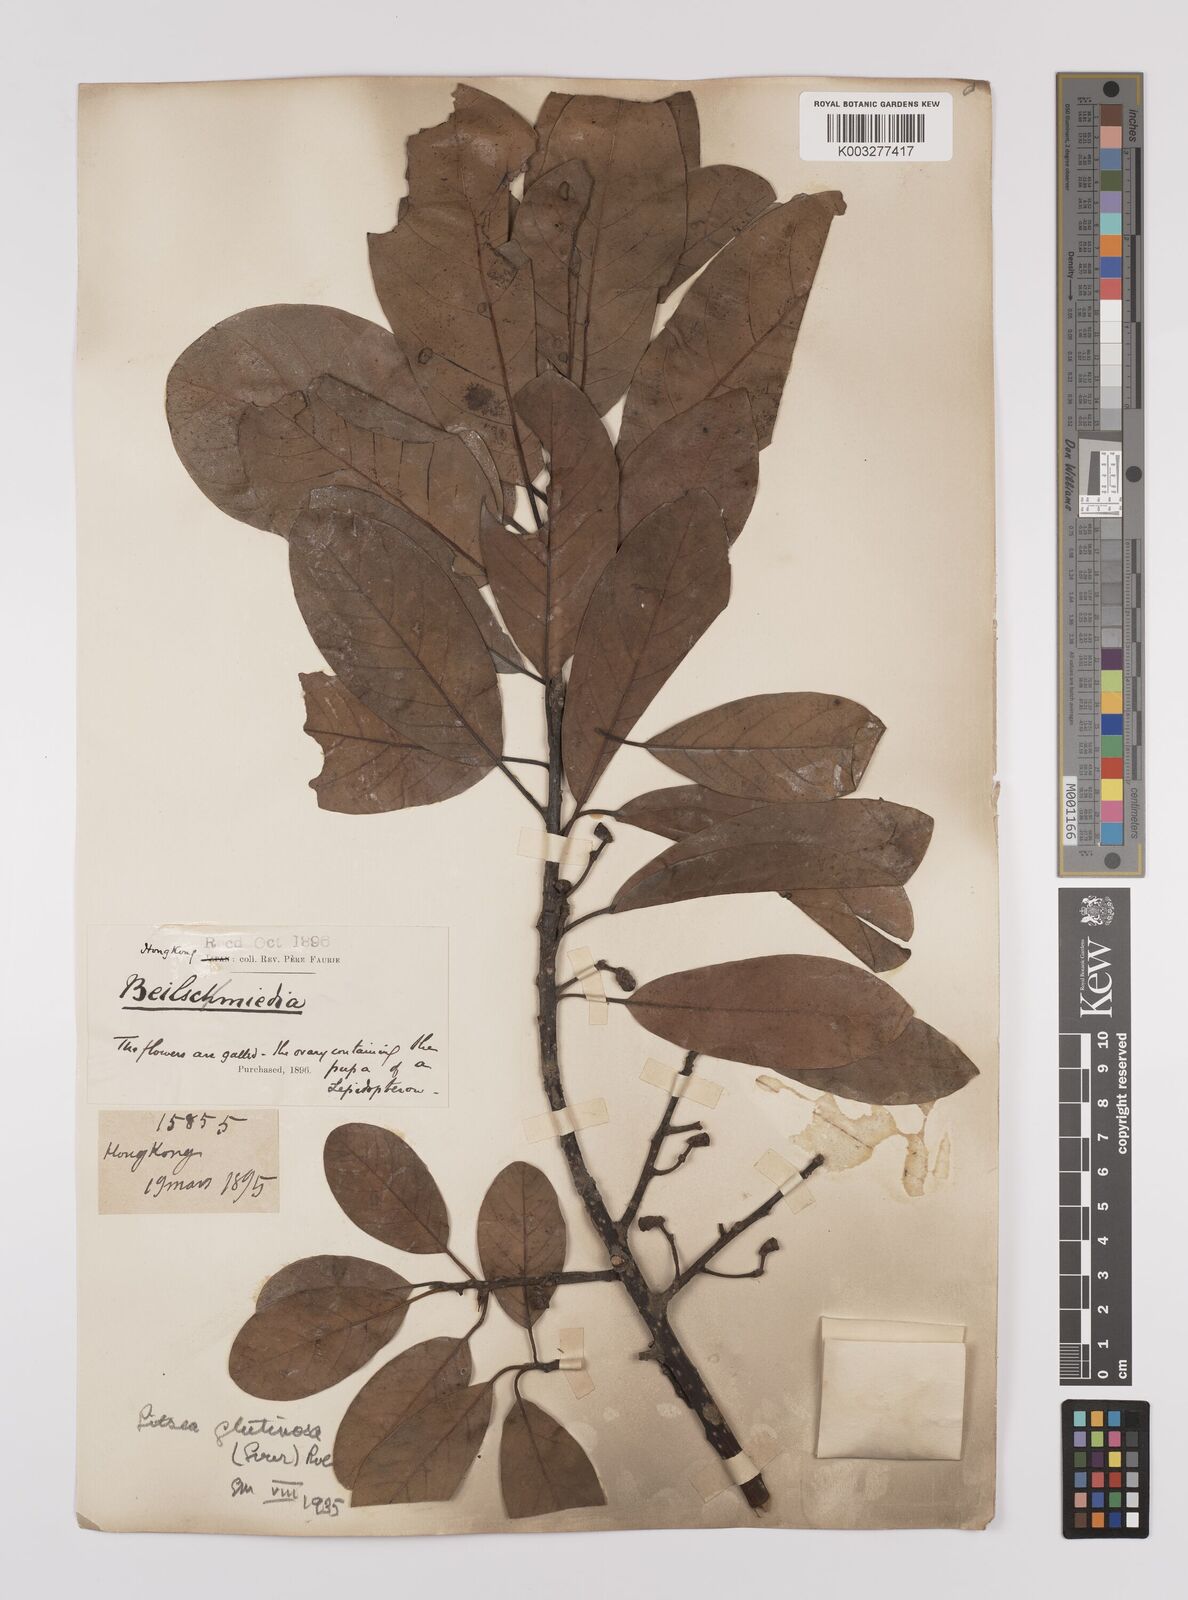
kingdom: Plantae
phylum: Tracheophyta
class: Magnoliopsida
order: Laurales
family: Lauraceae
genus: Litsea
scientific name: Litsea glutinosa
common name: Indian-laurel
